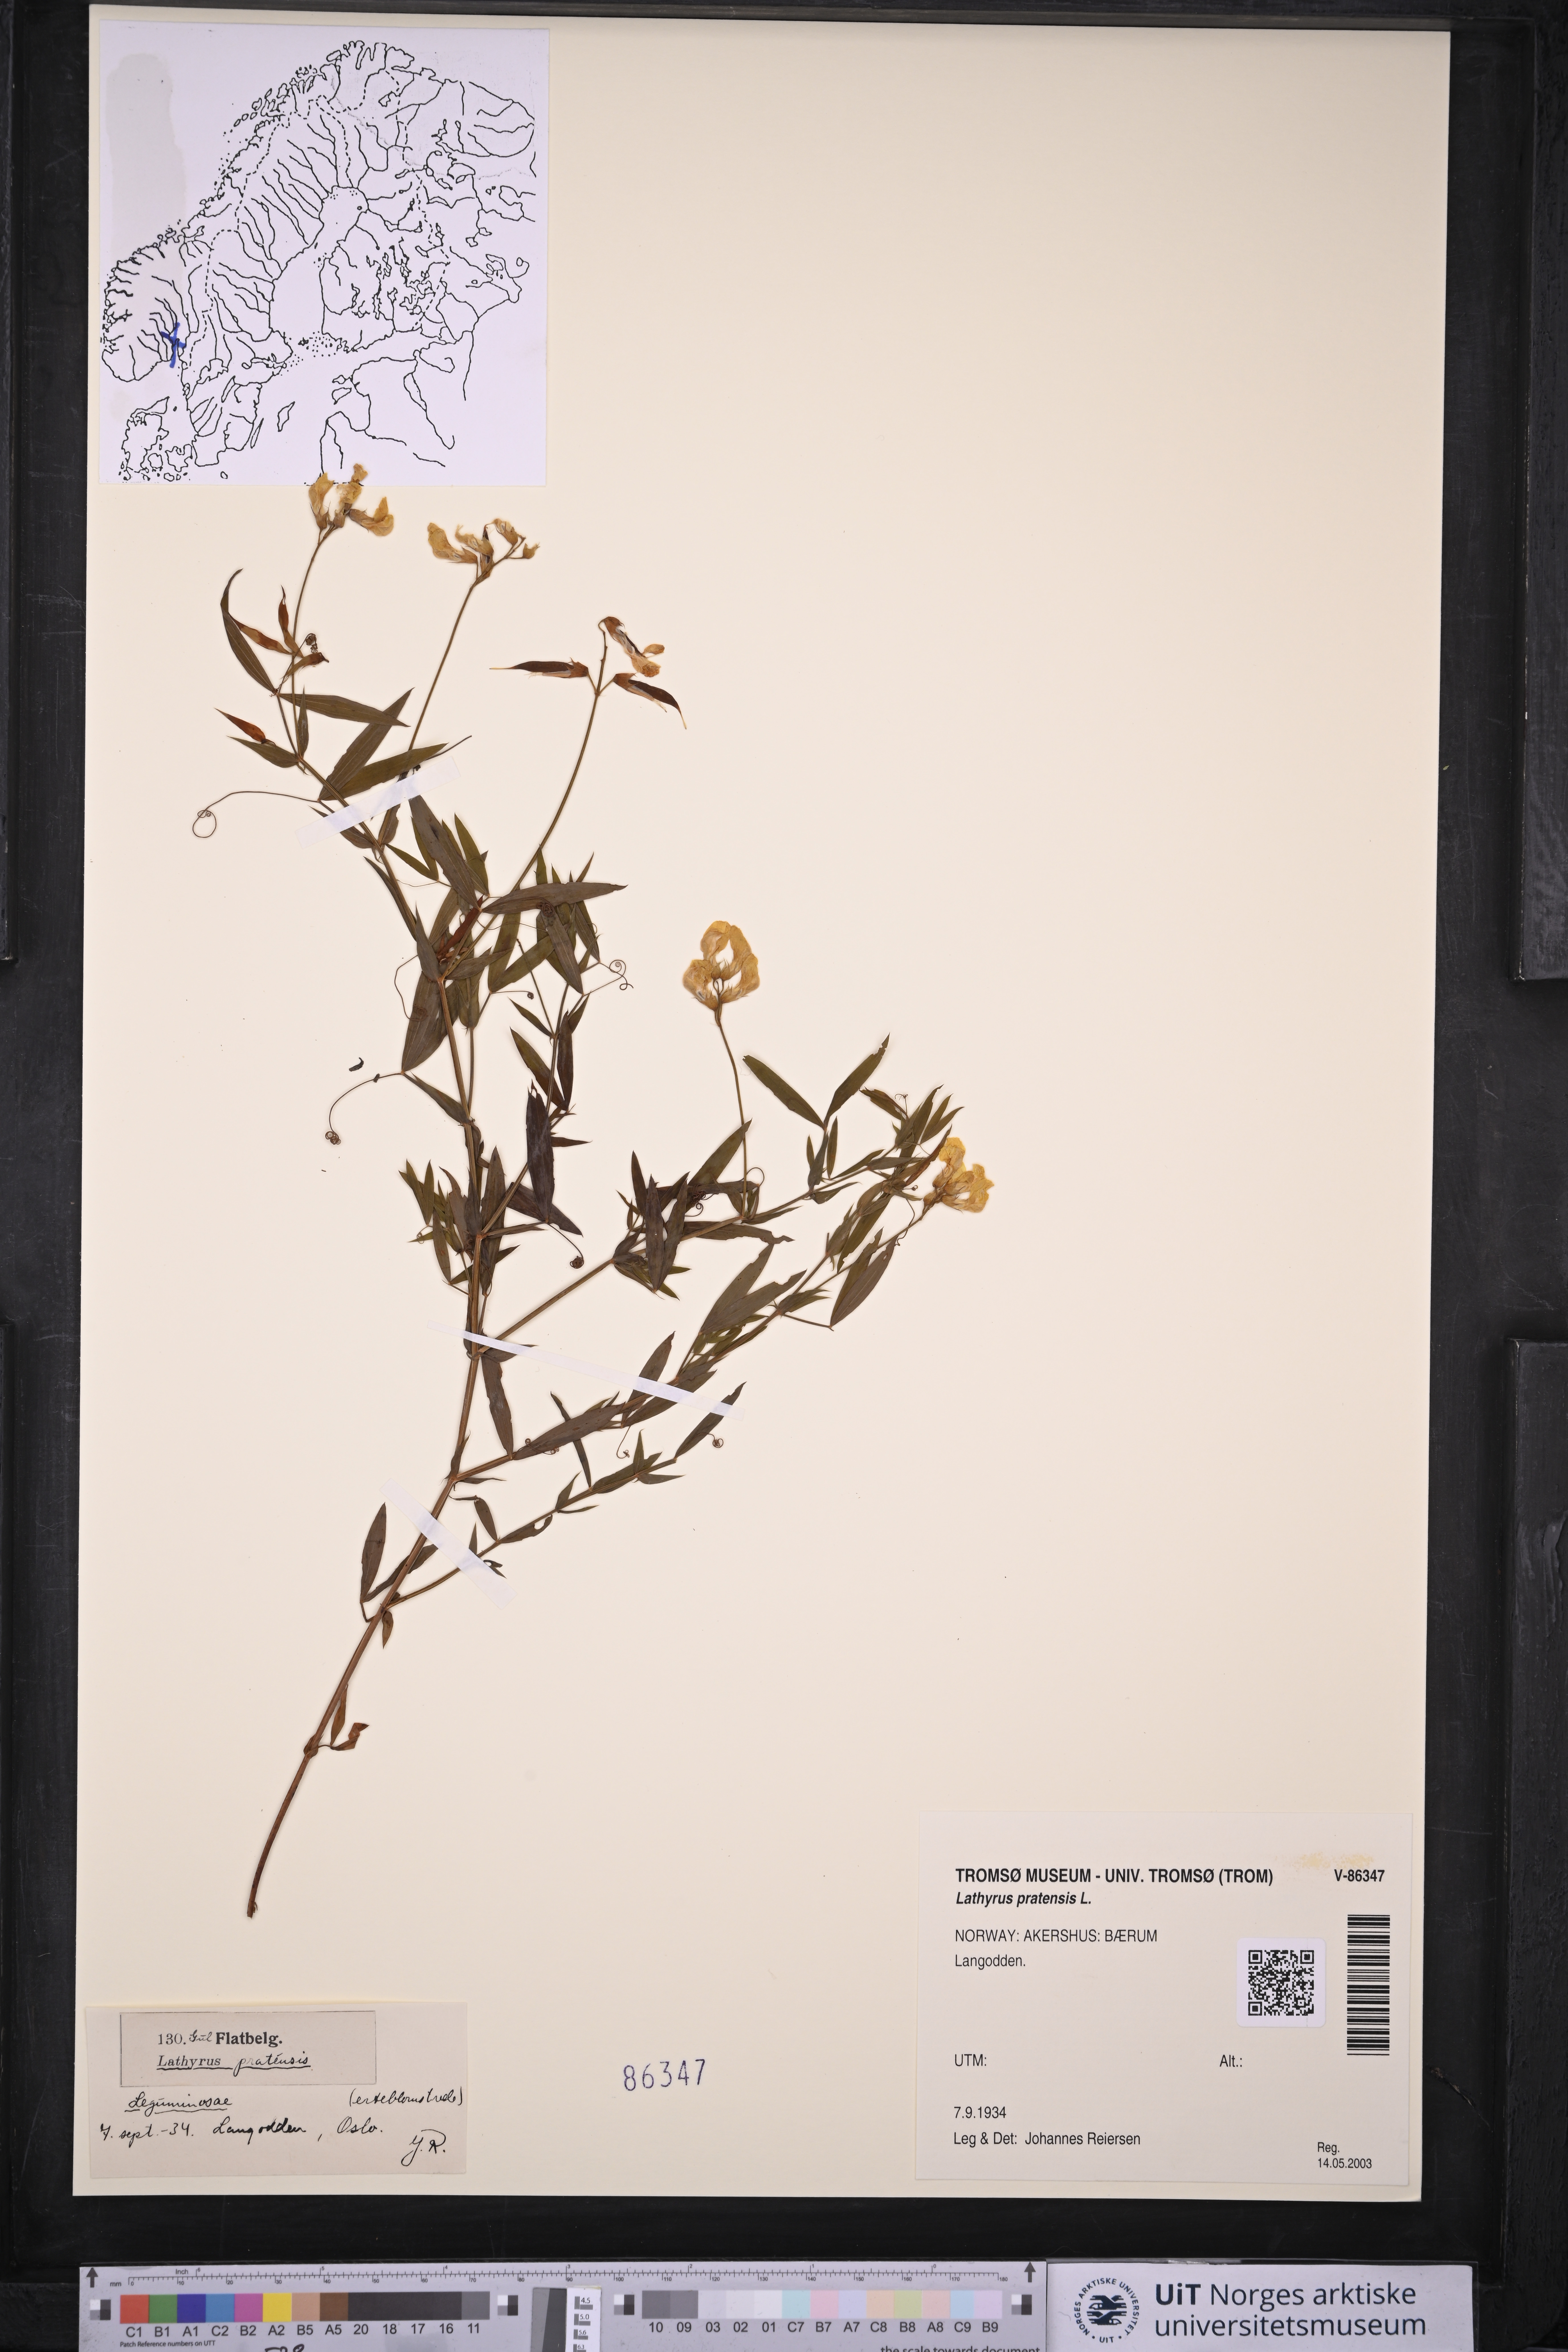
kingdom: Plantae
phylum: Tracheophyta
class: Magnoliopsida
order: Fabales
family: Fabaceae
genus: Lathyrus
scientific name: Lathyrus pratensis
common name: Meadow vetchling
